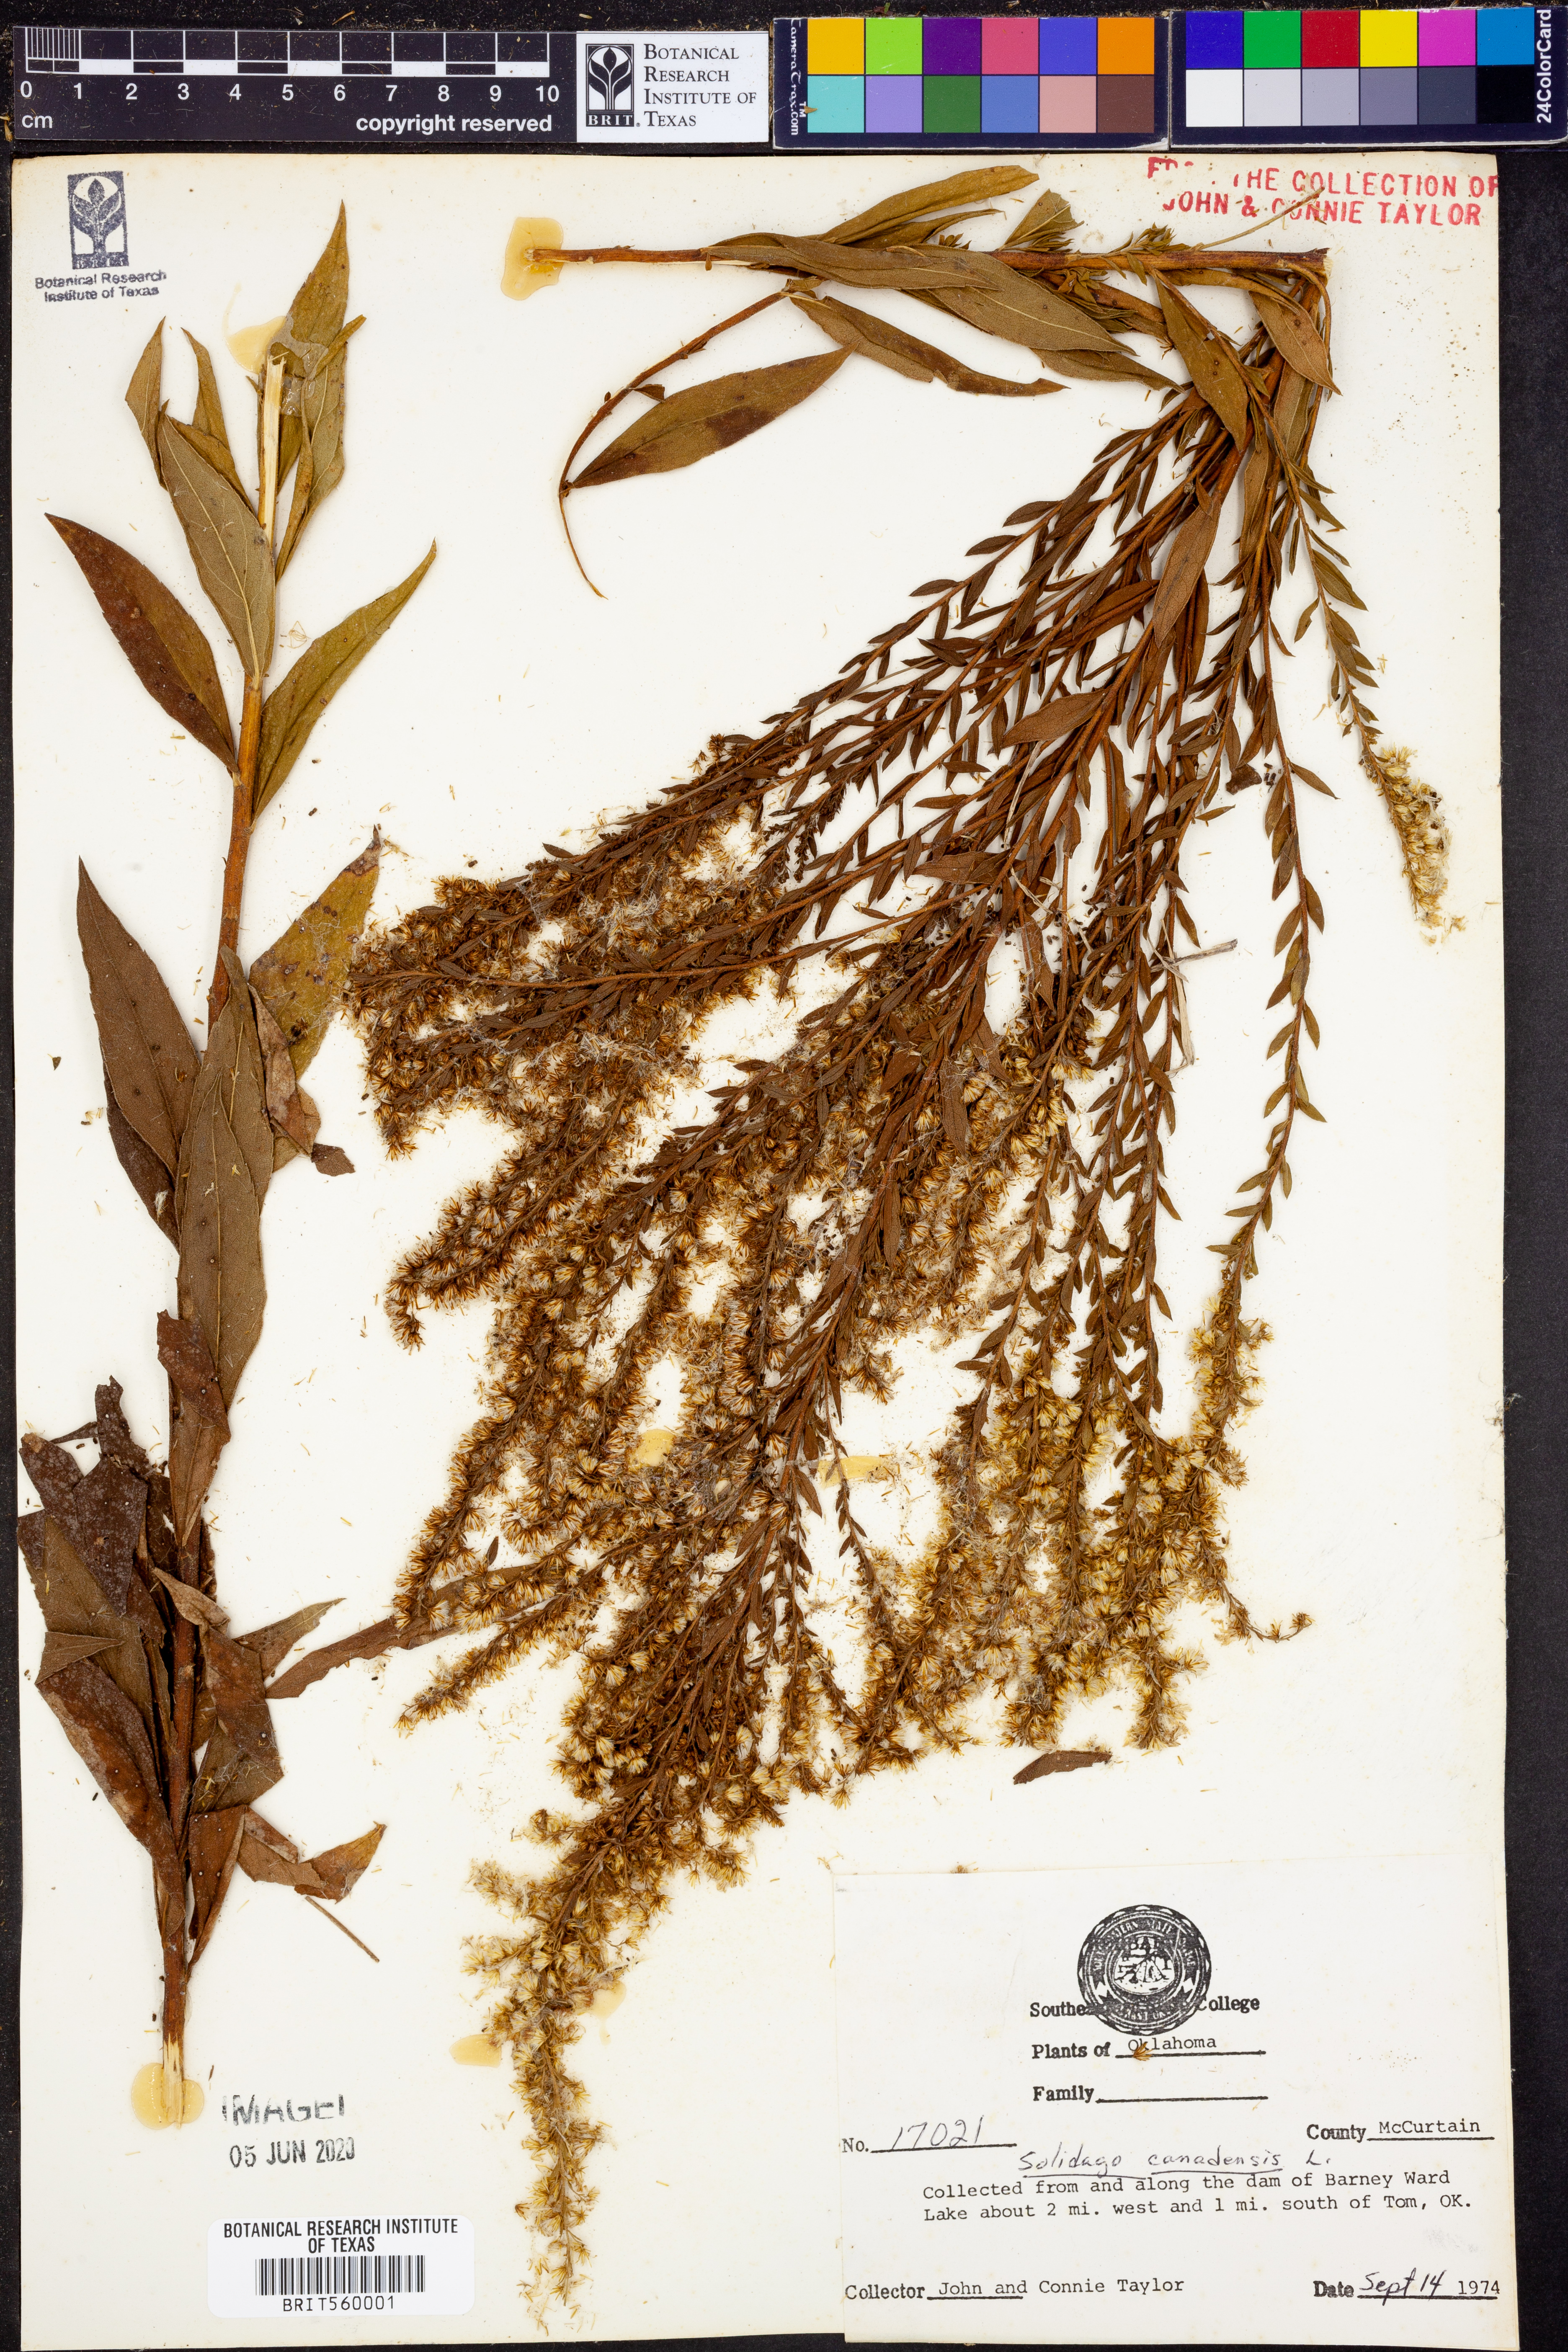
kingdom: Plantae
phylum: Tracheophyta
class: Magnoliopsida
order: Asterales
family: Asteraceae
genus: Solidago
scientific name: Solidago canadensis
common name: Canada goldenrod
